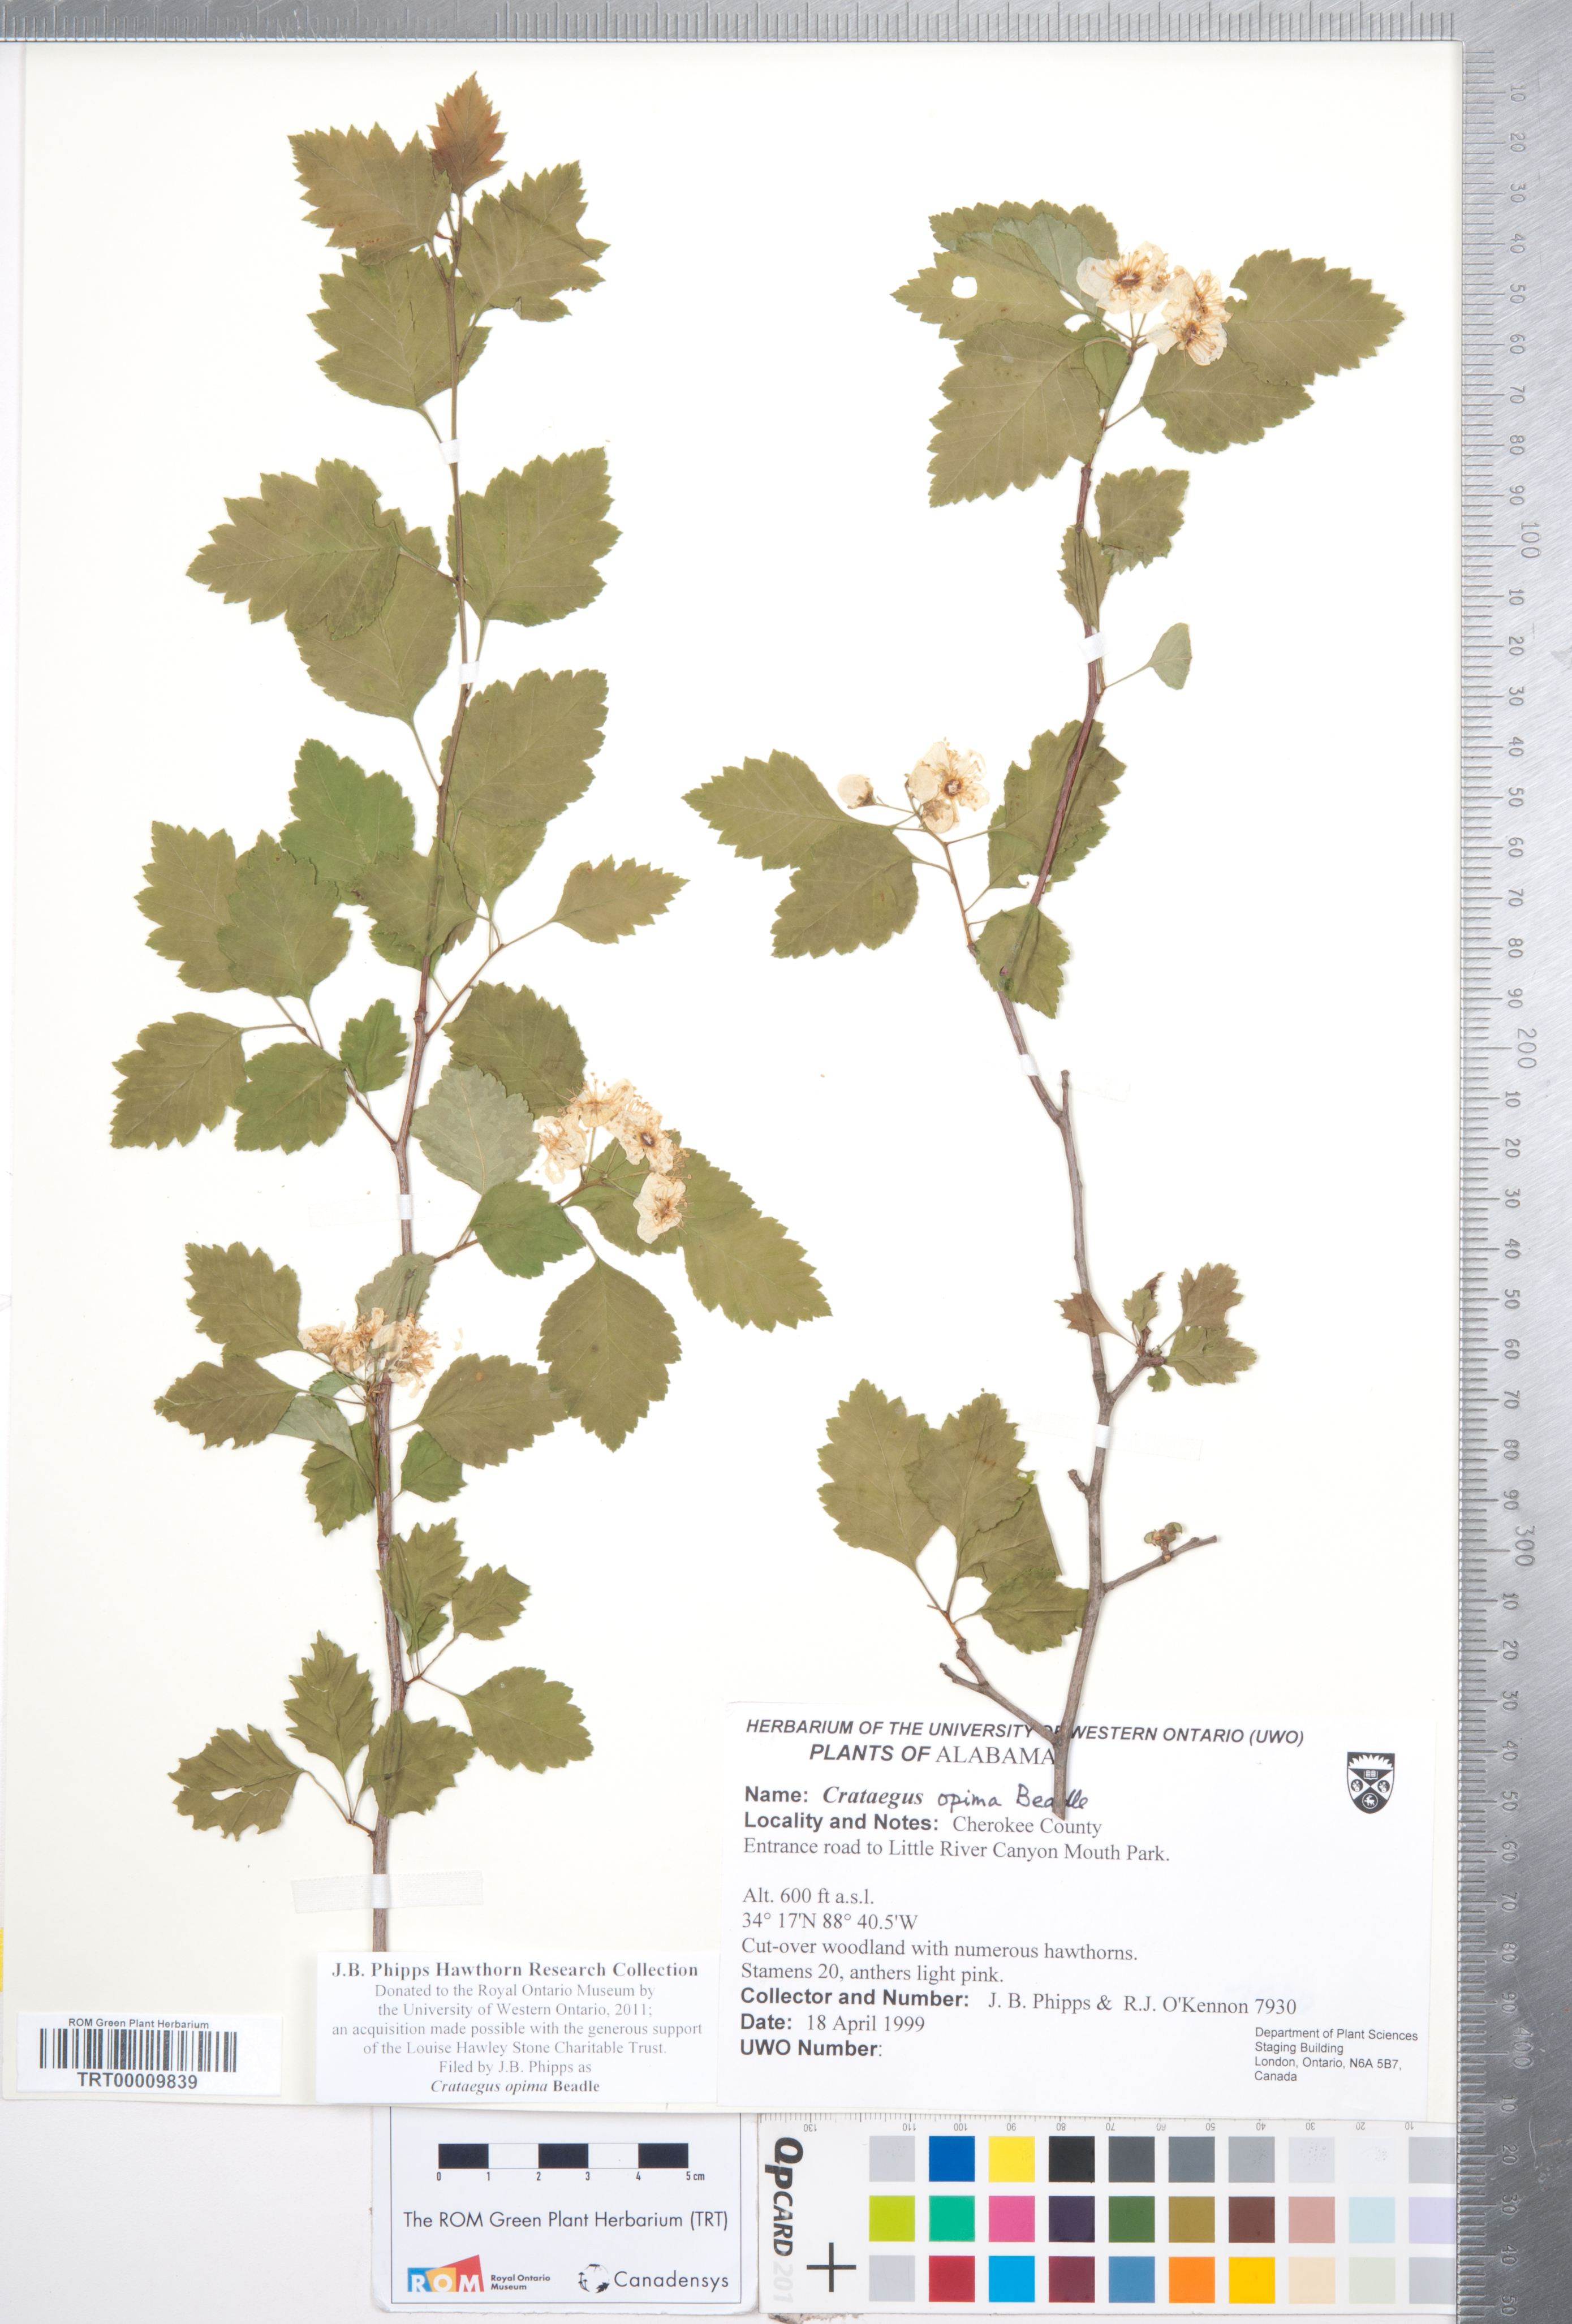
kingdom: Plantae
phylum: Tracheophyta
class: Magnoliopsida
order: Rosales
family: Rosaceae
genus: Crataegus
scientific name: Crataegus pulcherrima
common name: Beautiful hawthorn
